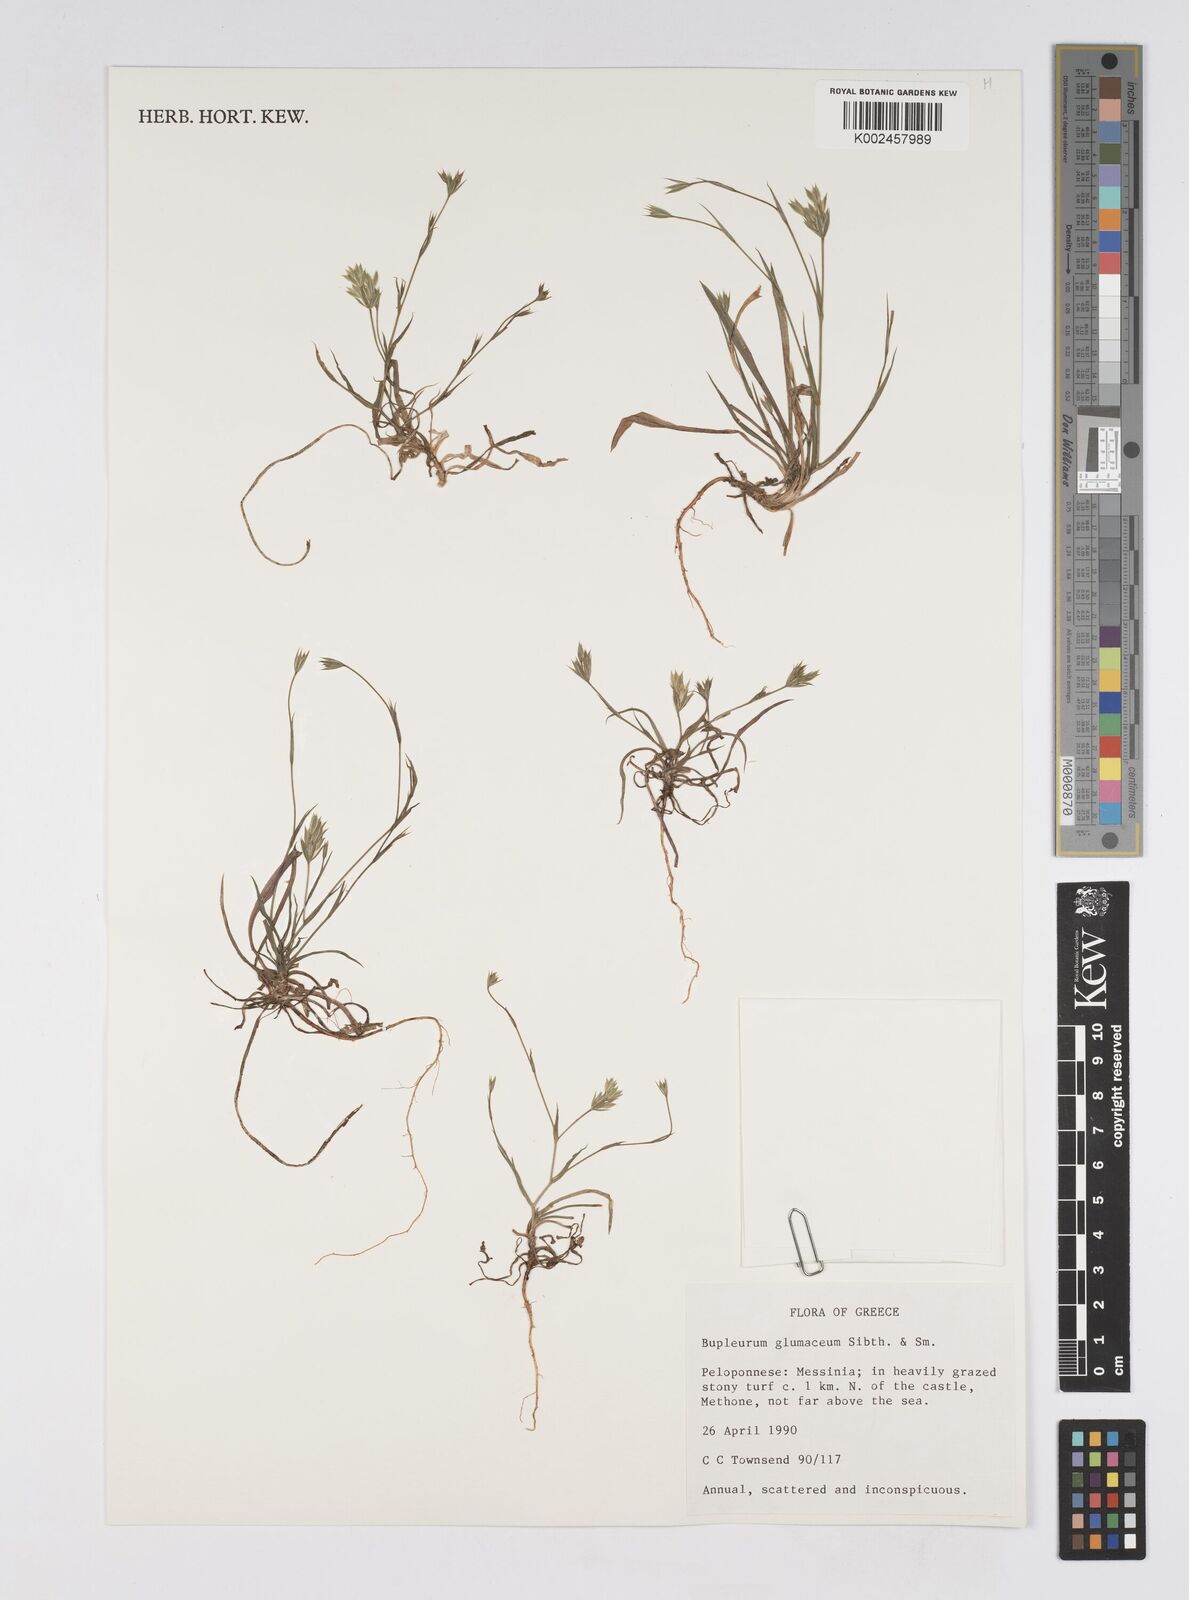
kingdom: Plantae
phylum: Tracheophyta
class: Magnoliopsida
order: Apiales
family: Apiaceae
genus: Bupleurum
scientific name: Bupleurum glumaceum
